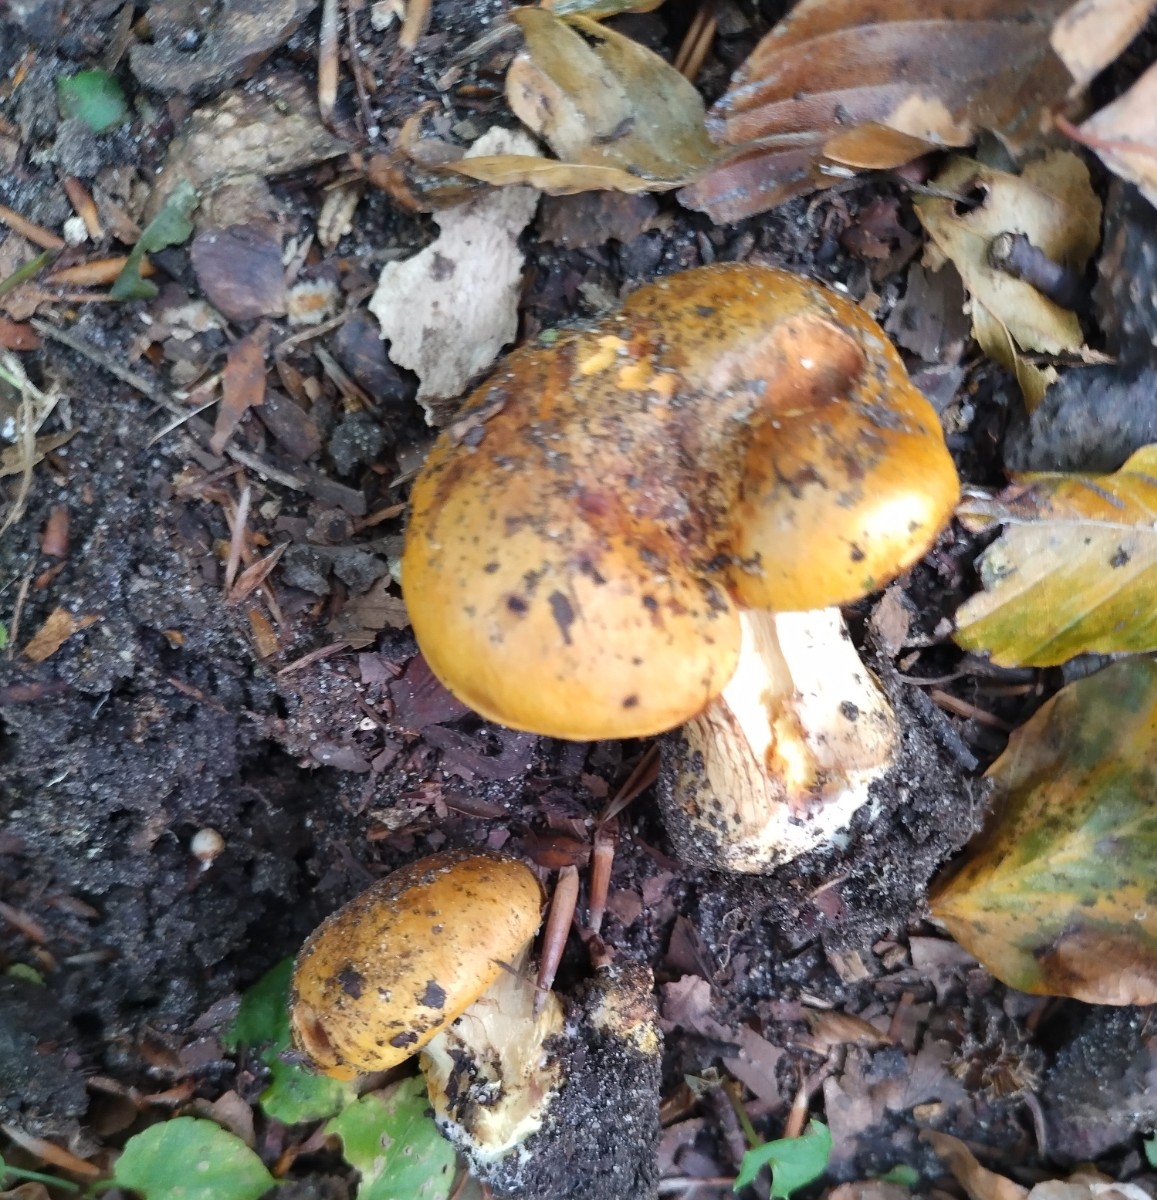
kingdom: Fungi
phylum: Basidiomycota
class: Agaricomycetes
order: Agaricales
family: Cortinariaceae
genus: Calonarius
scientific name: Calonarius alcalinophilus
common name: gyldenbrun slørhat
